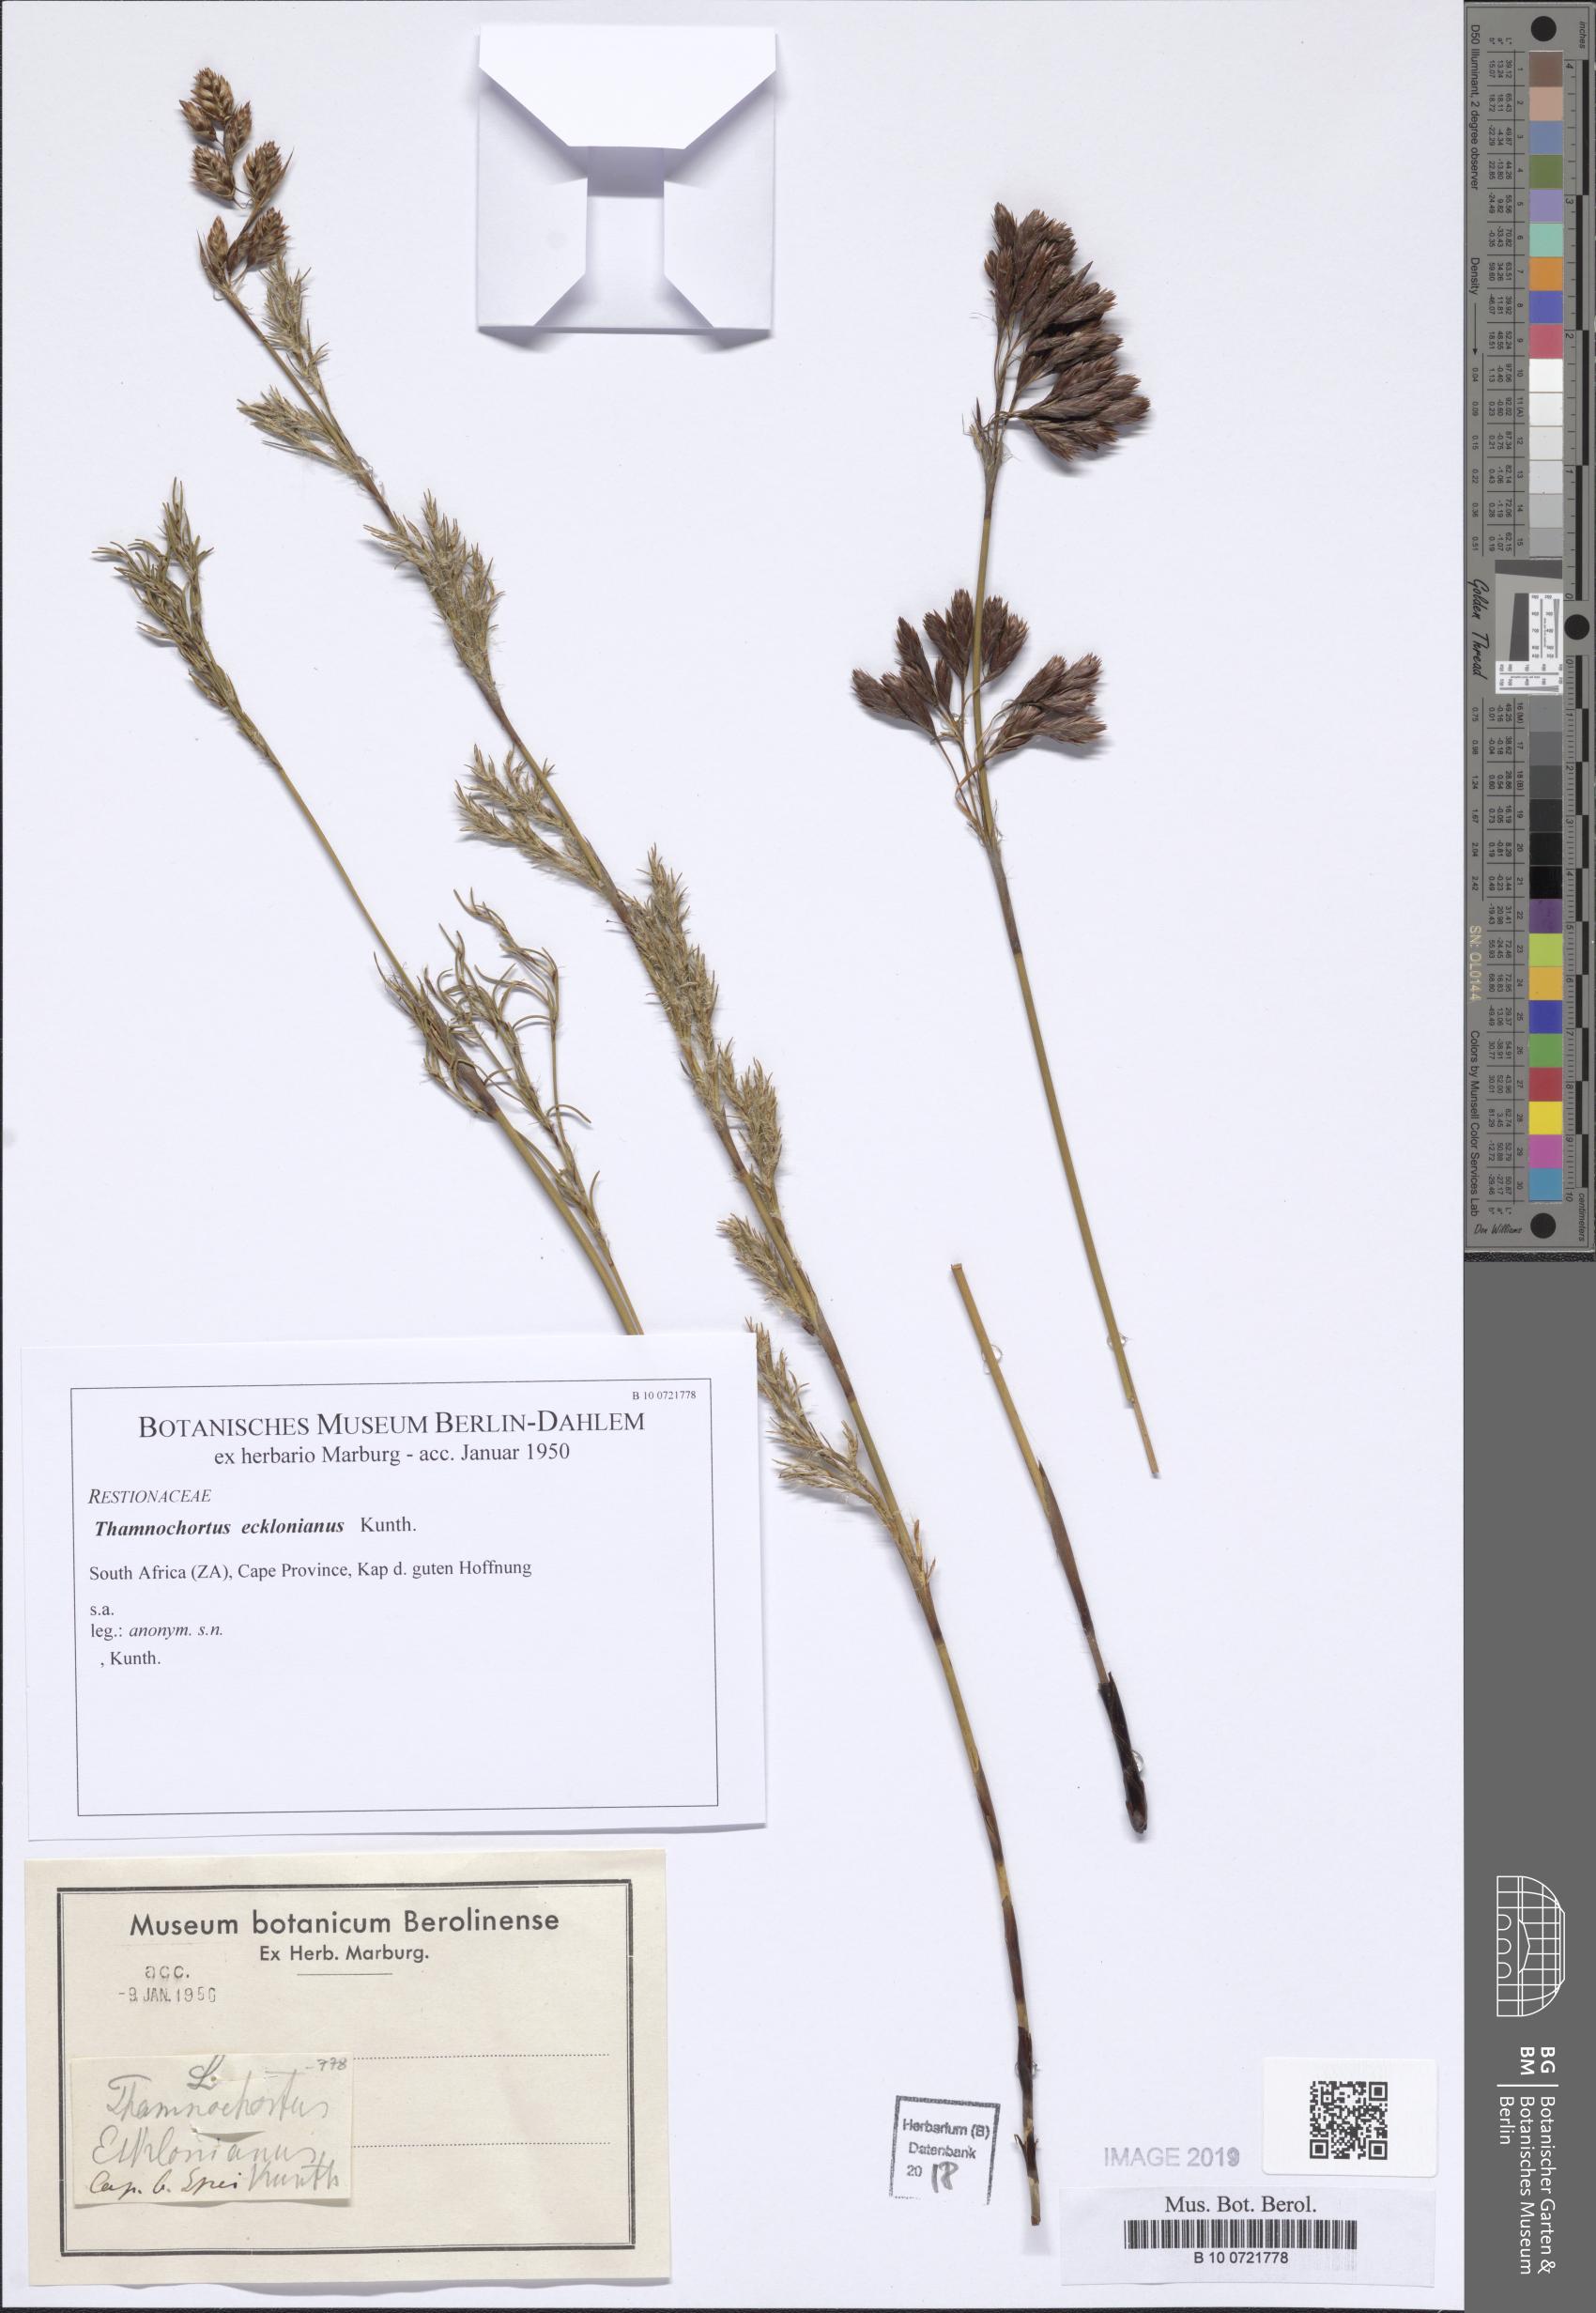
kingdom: Plantae
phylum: Tracheophyta
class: Liliopsida
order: Poales
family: Restionaceae
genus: Thamnochortus
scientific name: Thamnochortus lucens
